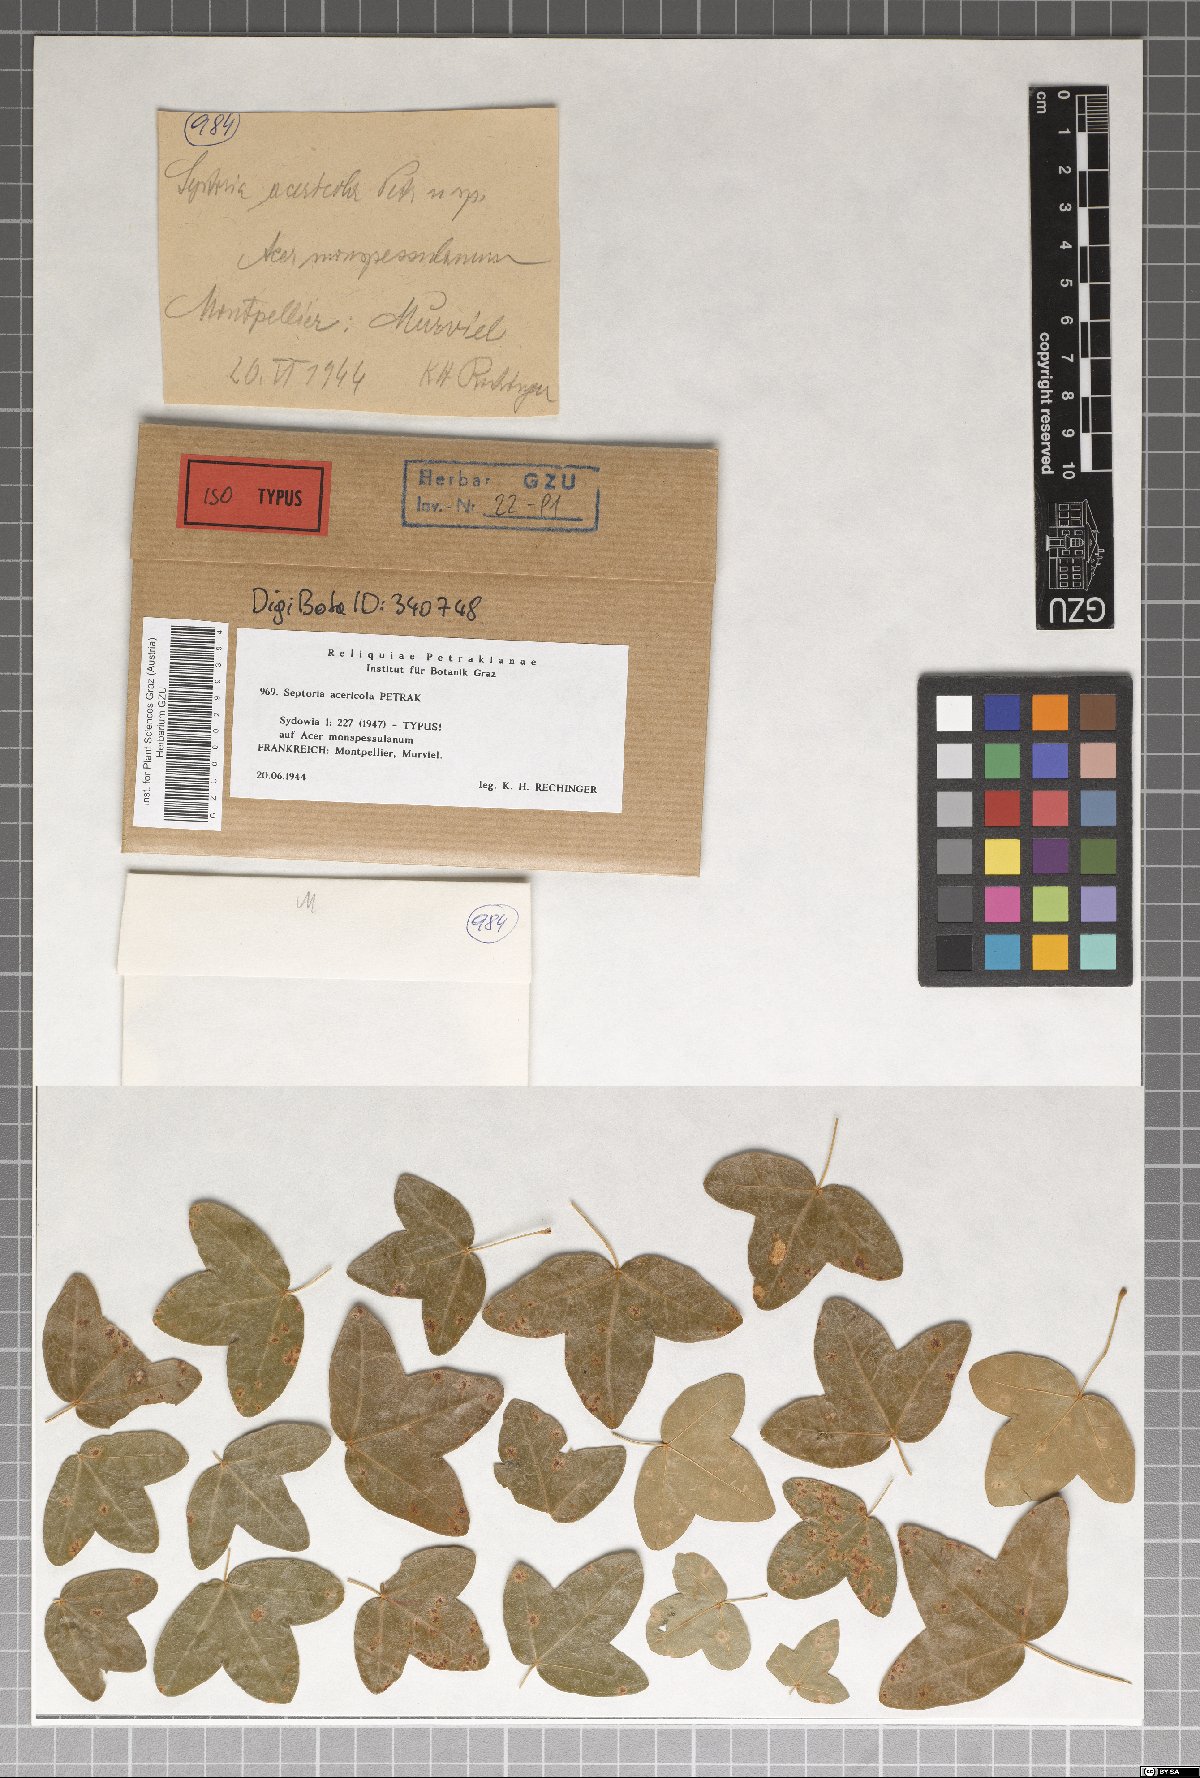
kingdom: Fungi
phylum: Ascomycota
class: Dothideomycetes
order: Capnodiales
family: Mycosphaerellaceae
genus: Septoria
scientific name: Septoria acericola
